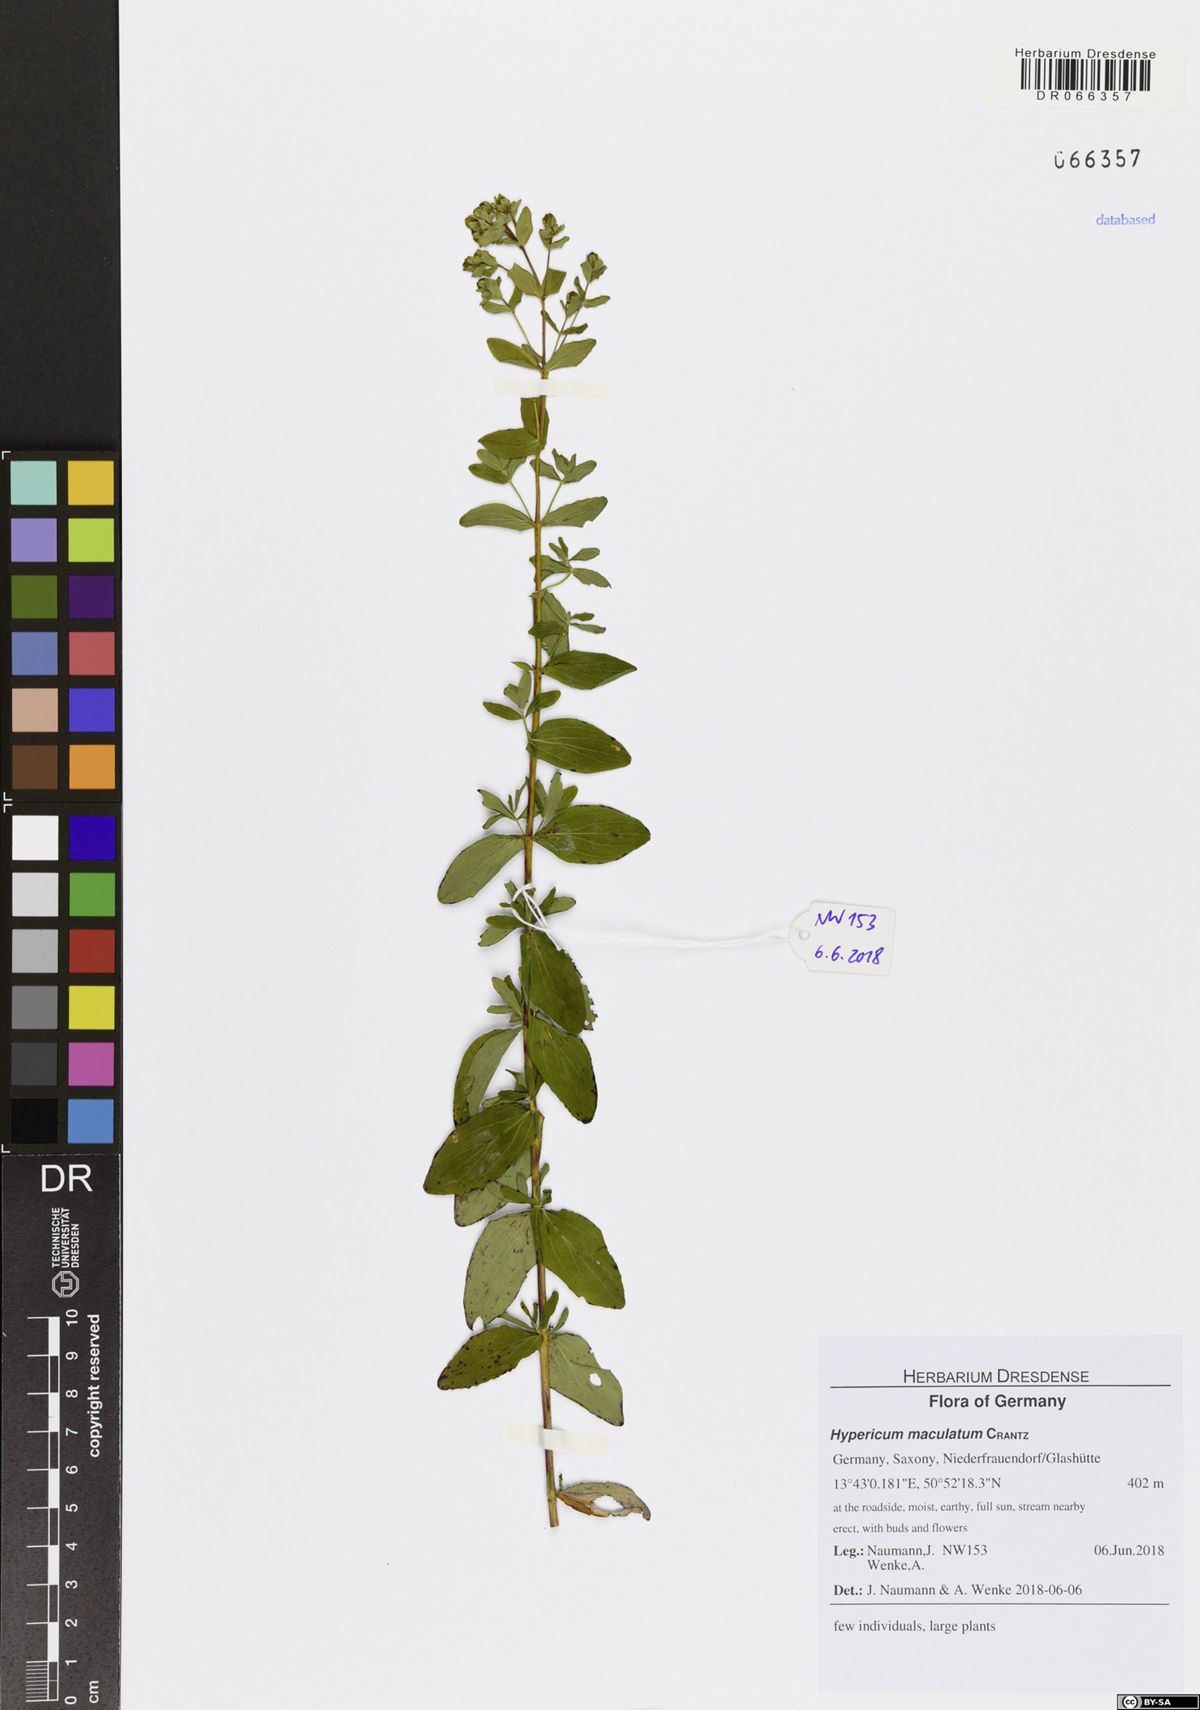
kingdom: Plantae
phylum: Tracheophyta
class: Magnoliopsida
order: Malpighiales
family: Hypericaceae
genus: Hypericum
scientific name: Hypericum maculatum
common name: Imperforate st. john's-wort
